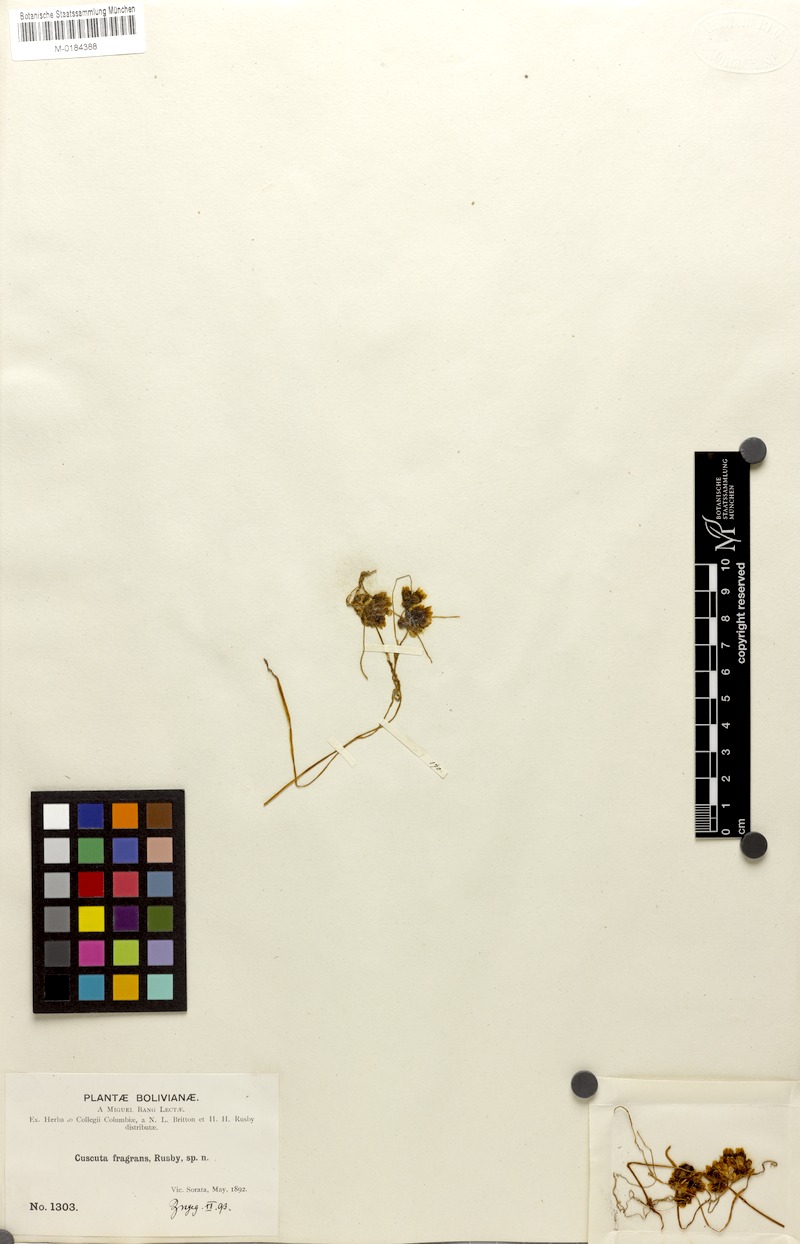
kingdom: Plantae
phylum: Tracheophyta
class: Magnoliopsida
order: Solanales
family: Convolvulaceae
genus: Cuscuta
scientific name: Cuscuta odorata
